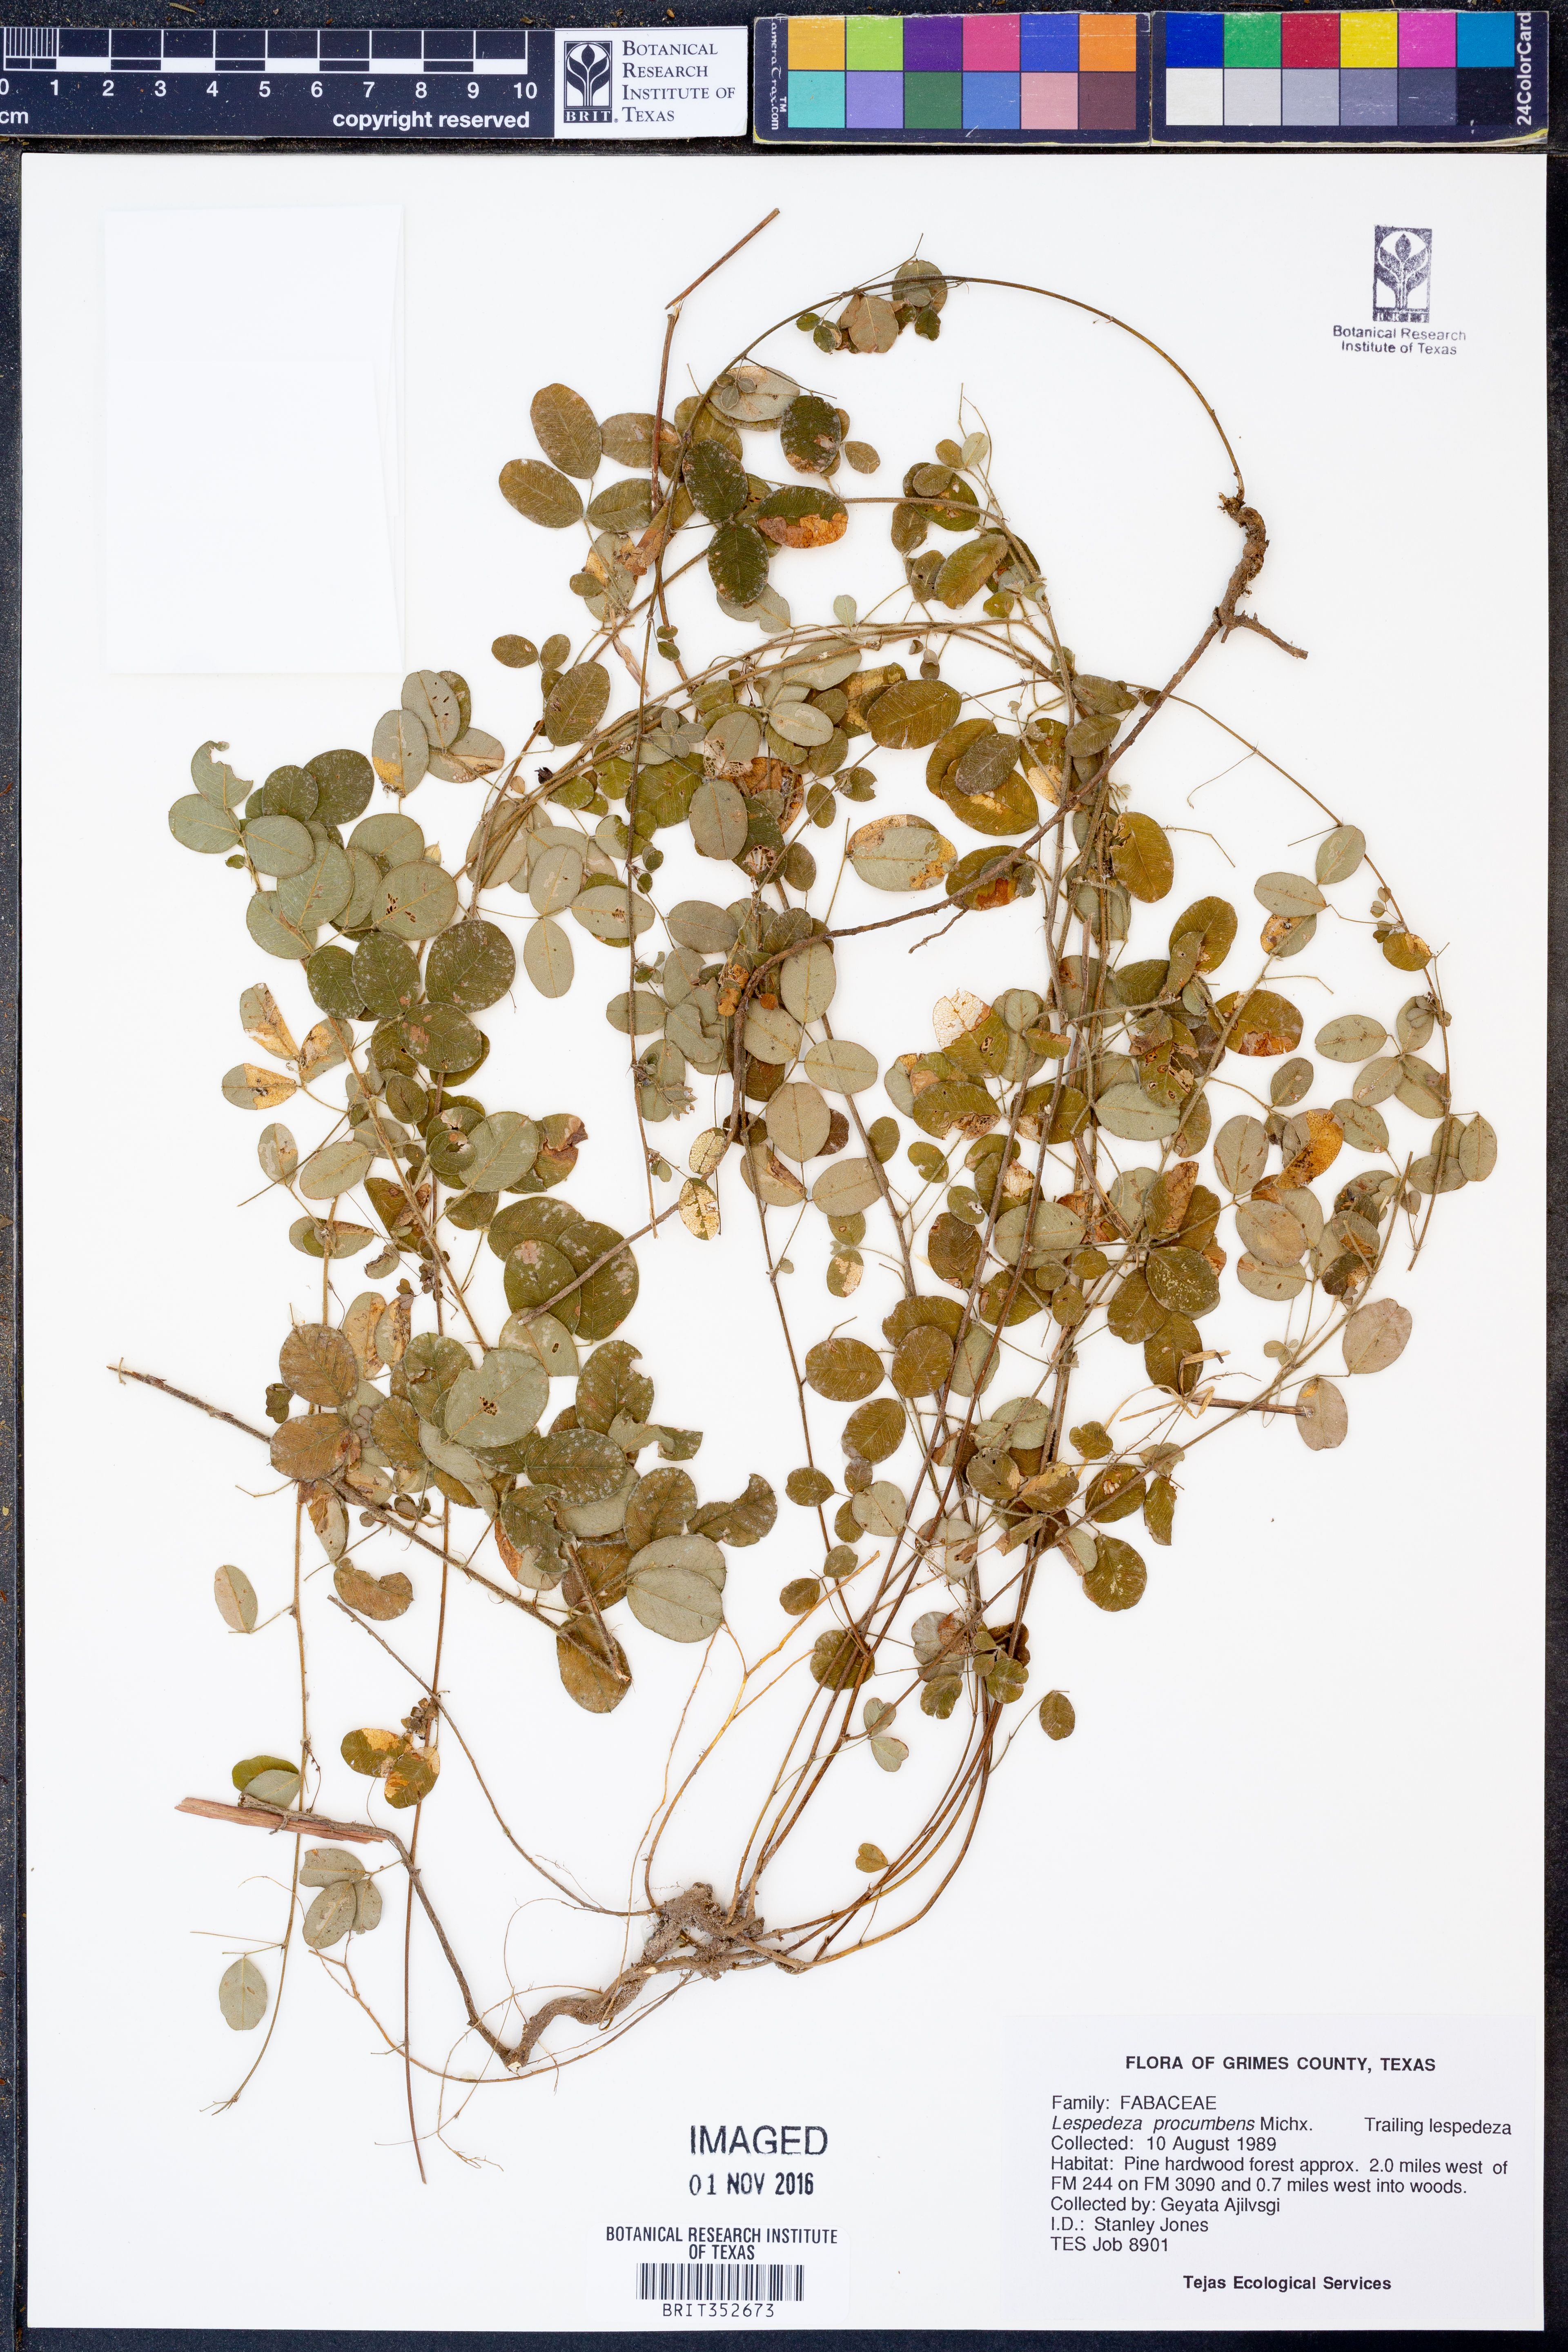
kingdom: Plantae
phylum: Tracheophyta
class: Magnoliopsida
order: Fabales
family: Fabaceae
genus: Lespedeza
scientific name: Lespedeza procumbens
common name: Downy trailing bush-clover
